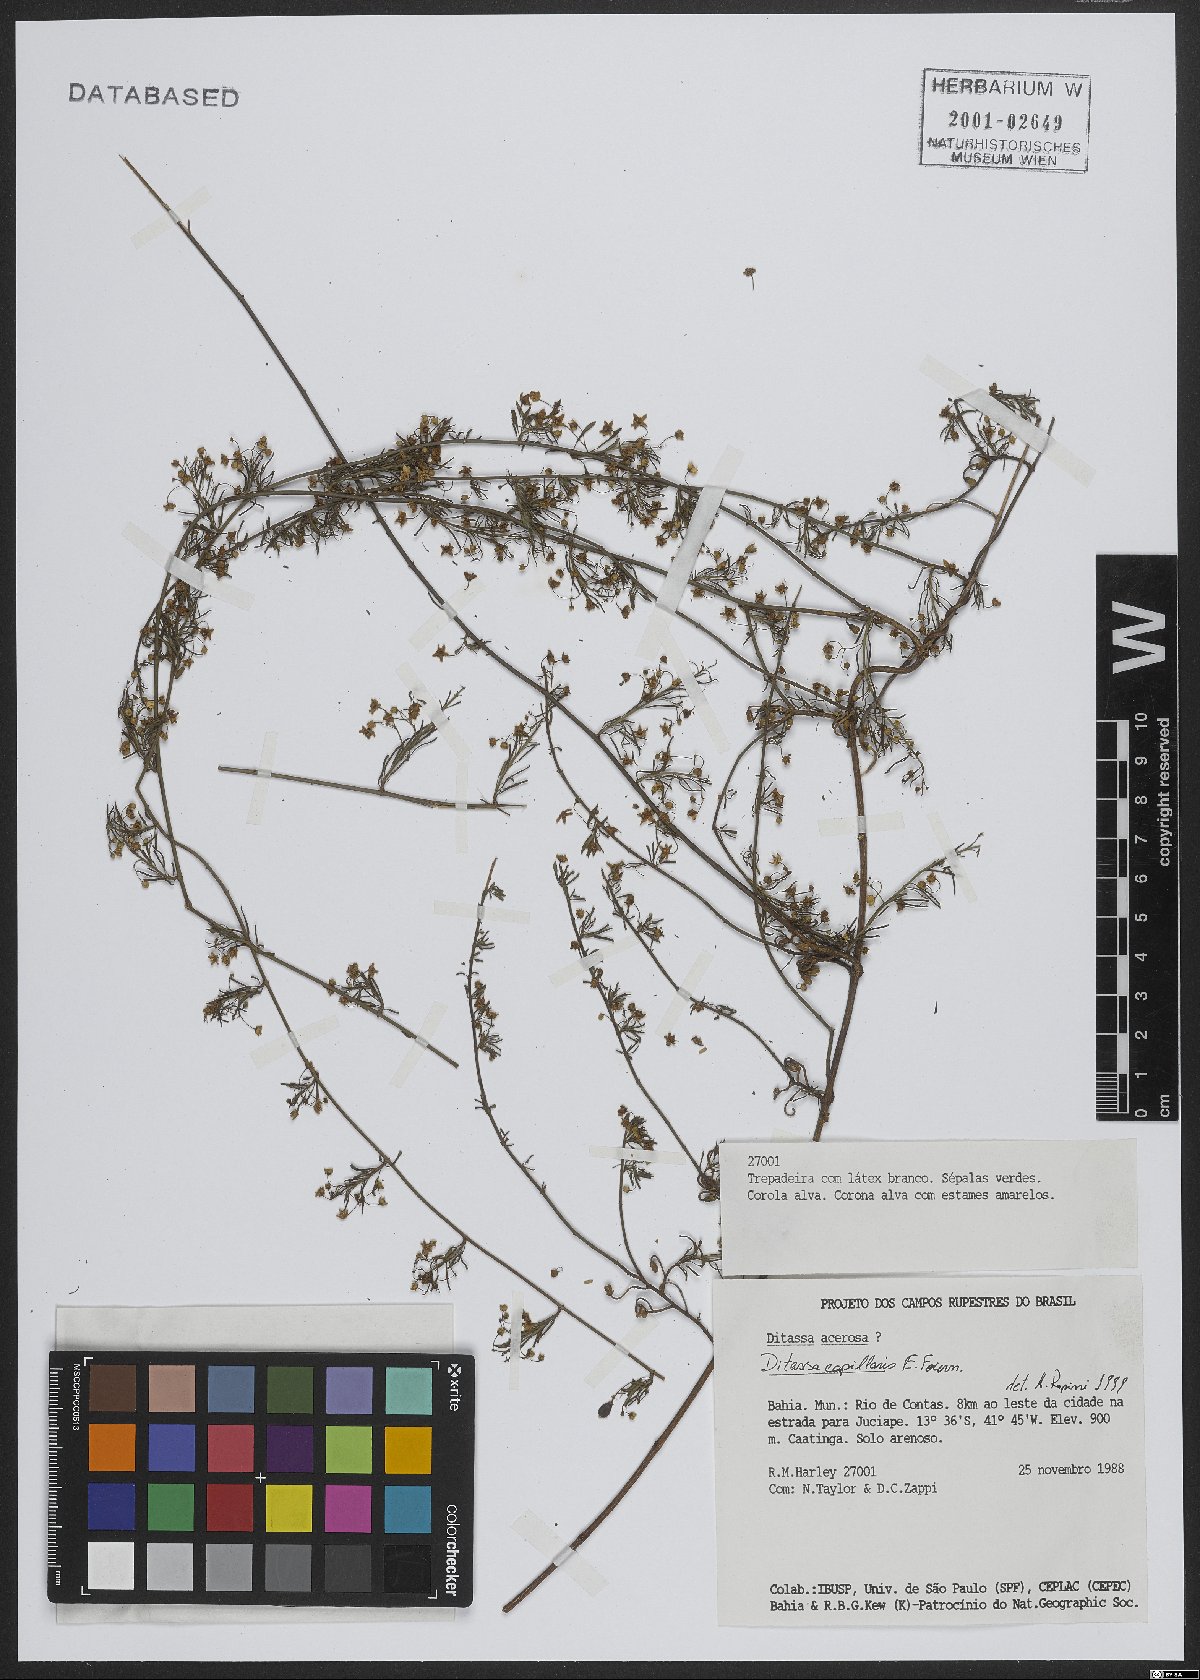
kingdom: Plantae
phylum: Tracheophyta
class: Magnoliopsida
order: Gentianales
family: Apocynaceae
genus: Ditassa
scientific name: Ditassa capillaris
